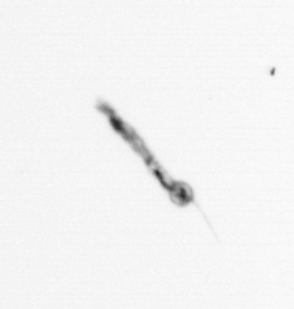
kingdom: Chromista
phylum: Ochrophyta
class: Bacillariophyceae
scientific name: Bacillariophyceae
